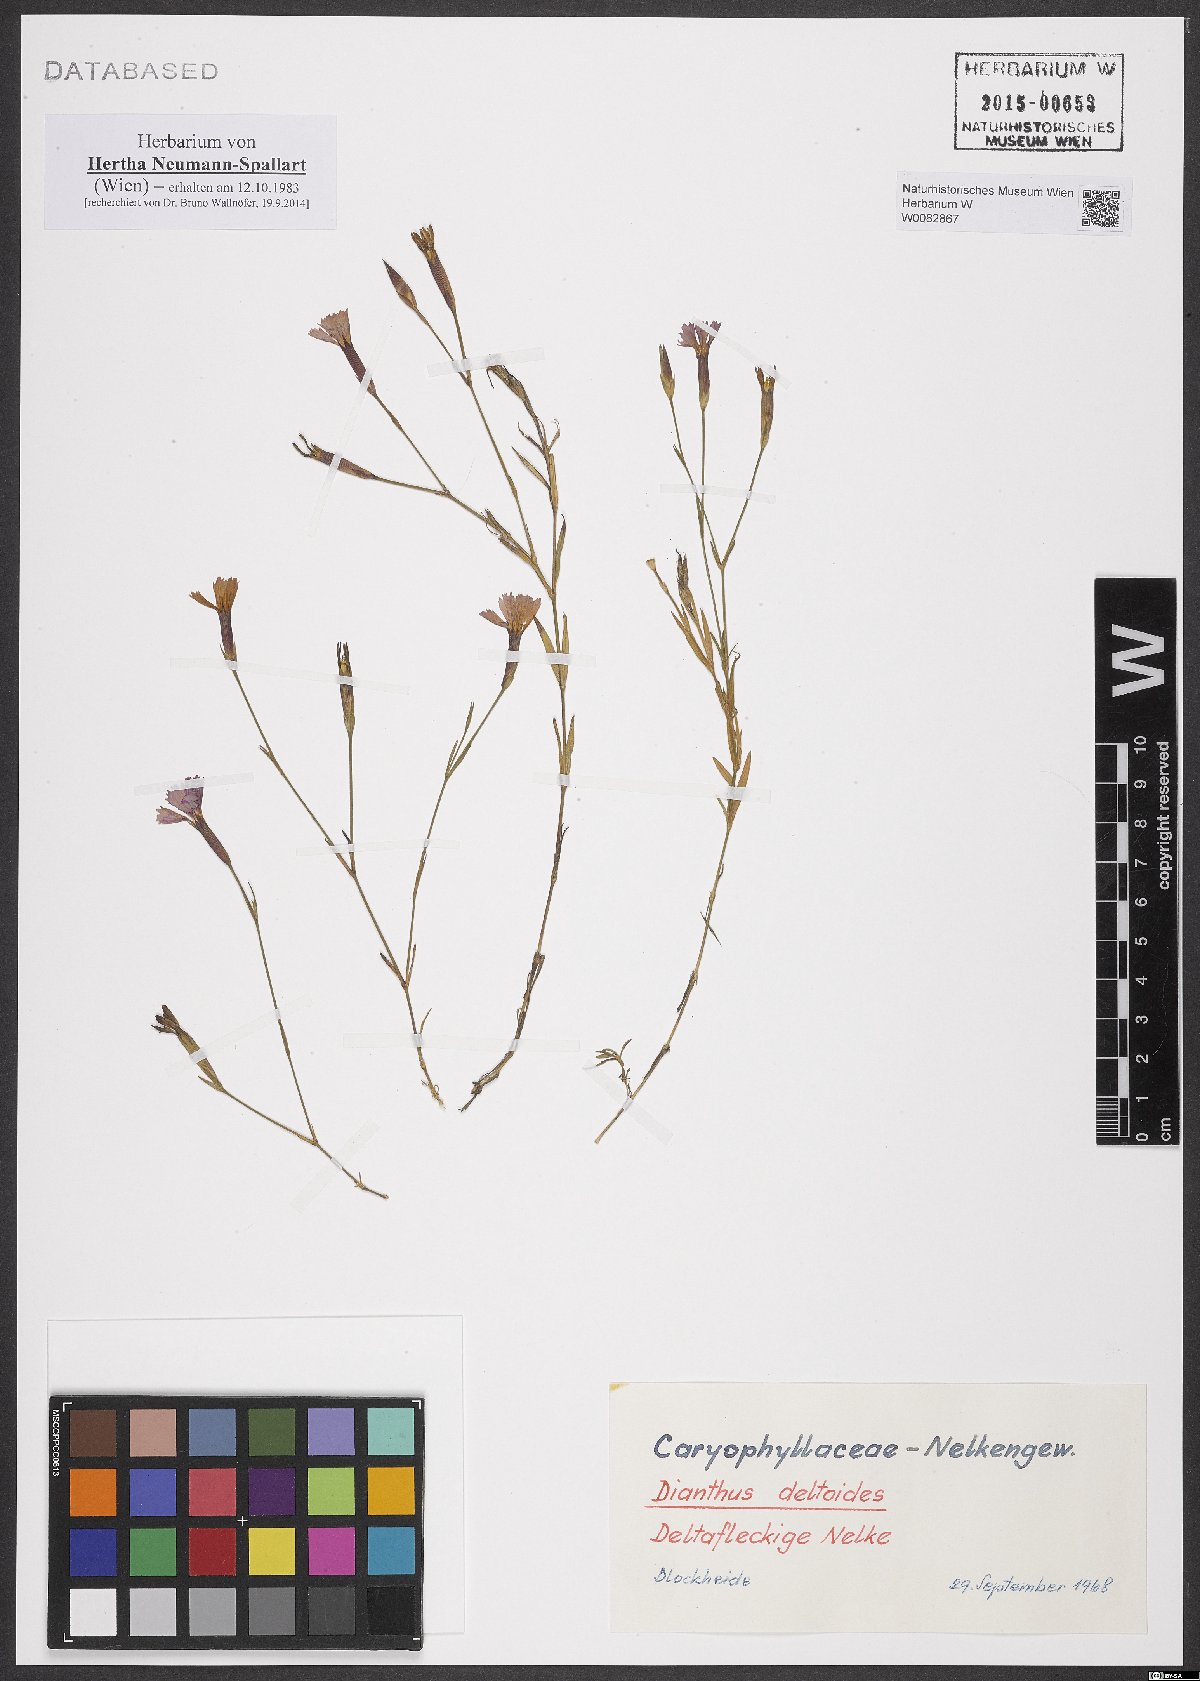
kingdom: Plantae
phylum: Tracheophyta
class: Magnoliopsida
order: Caryophyllales
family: Caryophyllaceae
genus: Dianthus
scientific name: Dianthus deltoides
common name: Maiden pink
